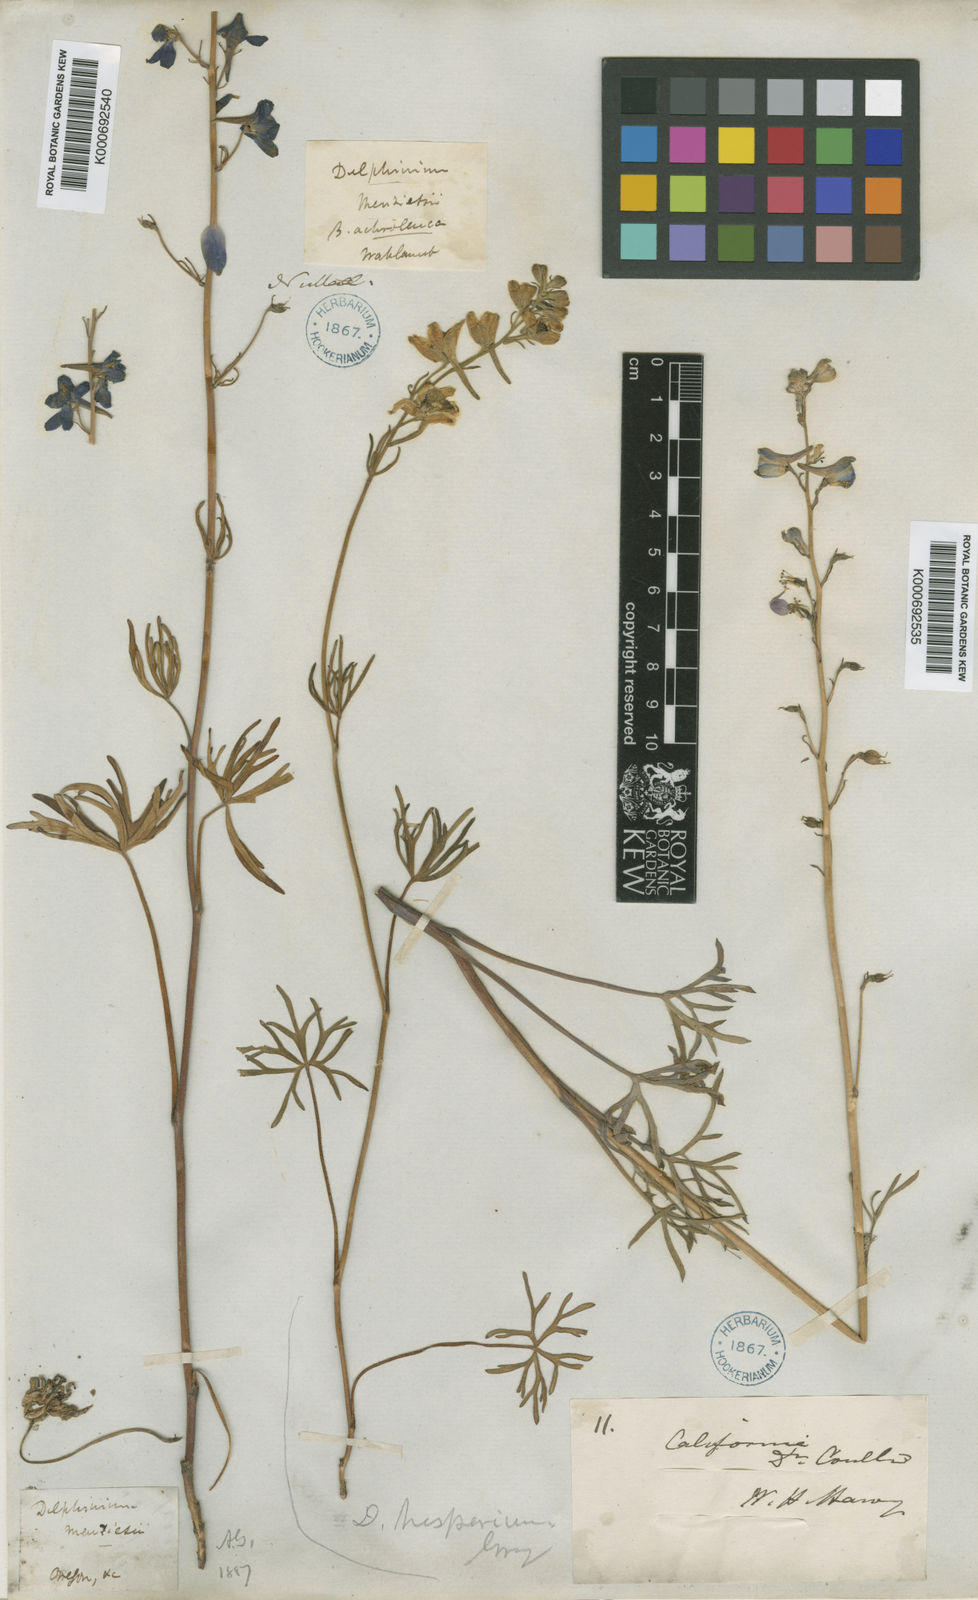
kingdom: Plantae
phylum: Tracheophyta
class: Magnoliopsida
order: Ranunculales
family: Ranunculaceae
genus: Delphinium
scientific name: Delphinium hesperium
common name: Western larkspur
